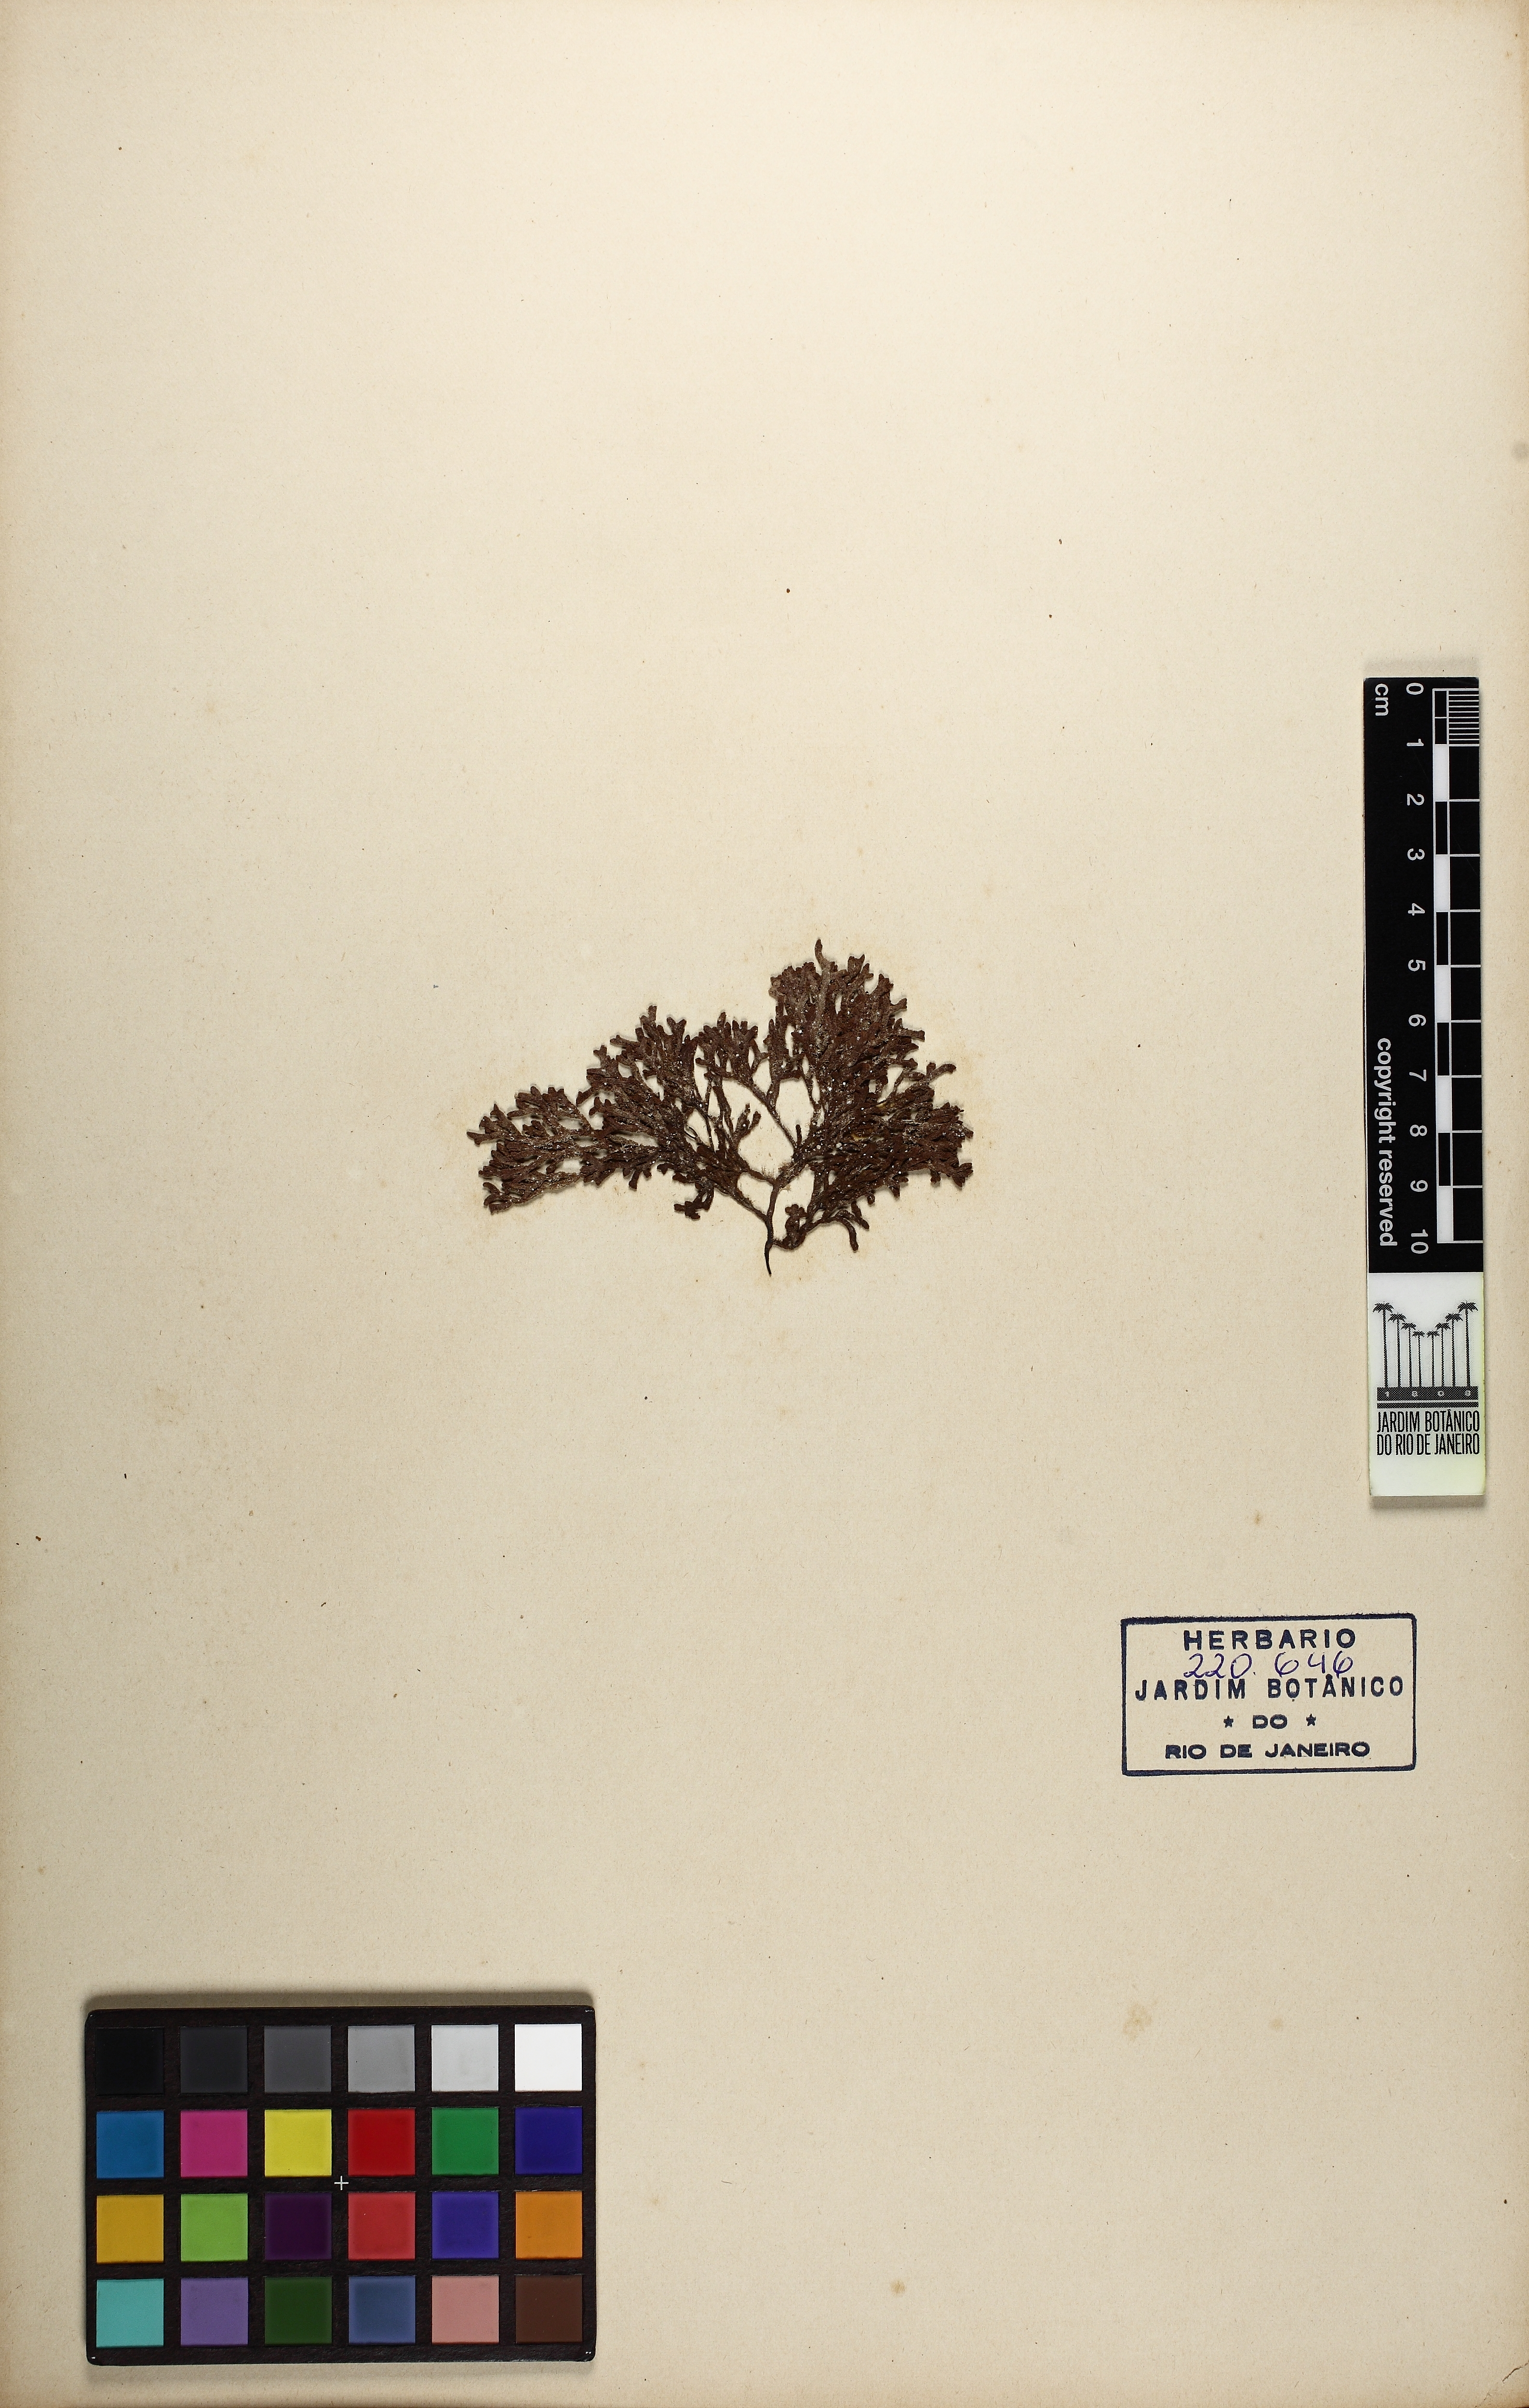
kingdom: Chromista
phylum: Ochrophyta
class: Phaeophyceae
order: Sphacelariales
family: Cladostephaceae
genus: Cladostephus
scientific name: Cladostephus spongiosus
